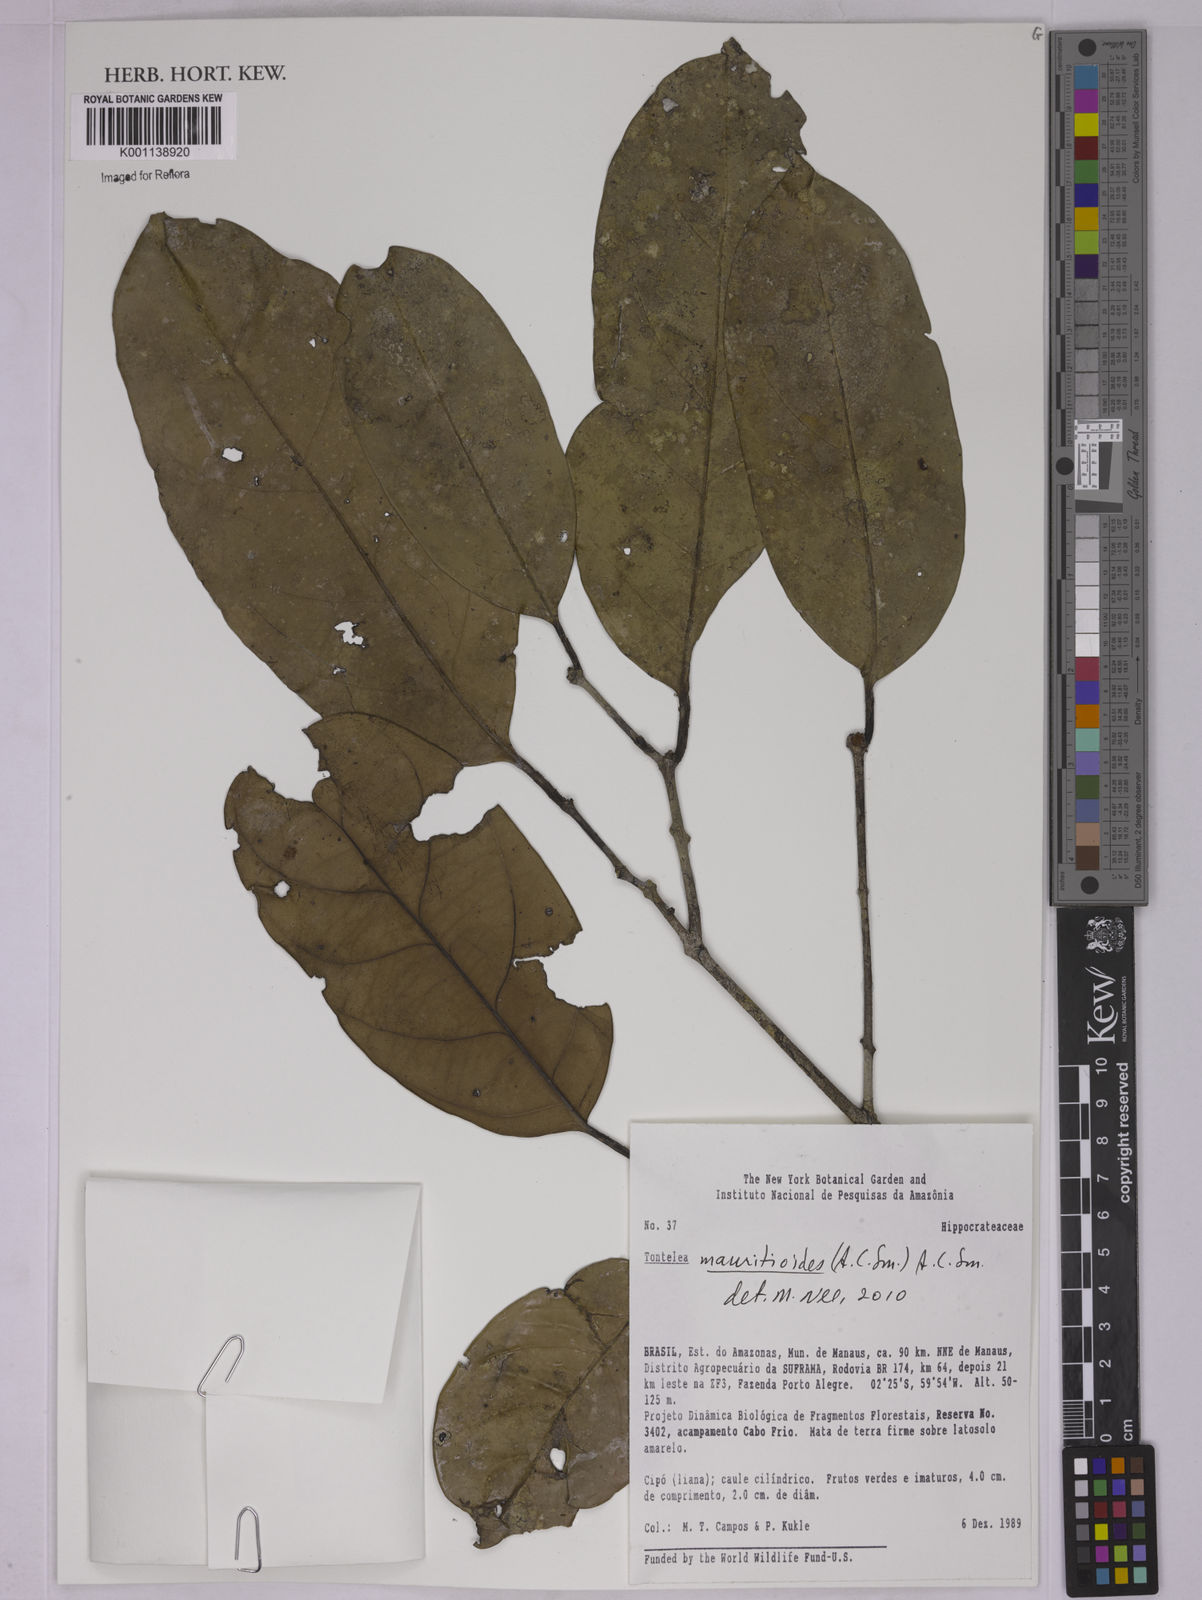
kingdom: Plantae
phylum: Tracheophyta
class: Magnoliopsida
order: Celastrales
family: Celastraceae
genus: Tontelea
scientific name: Tontelea mauritioides
